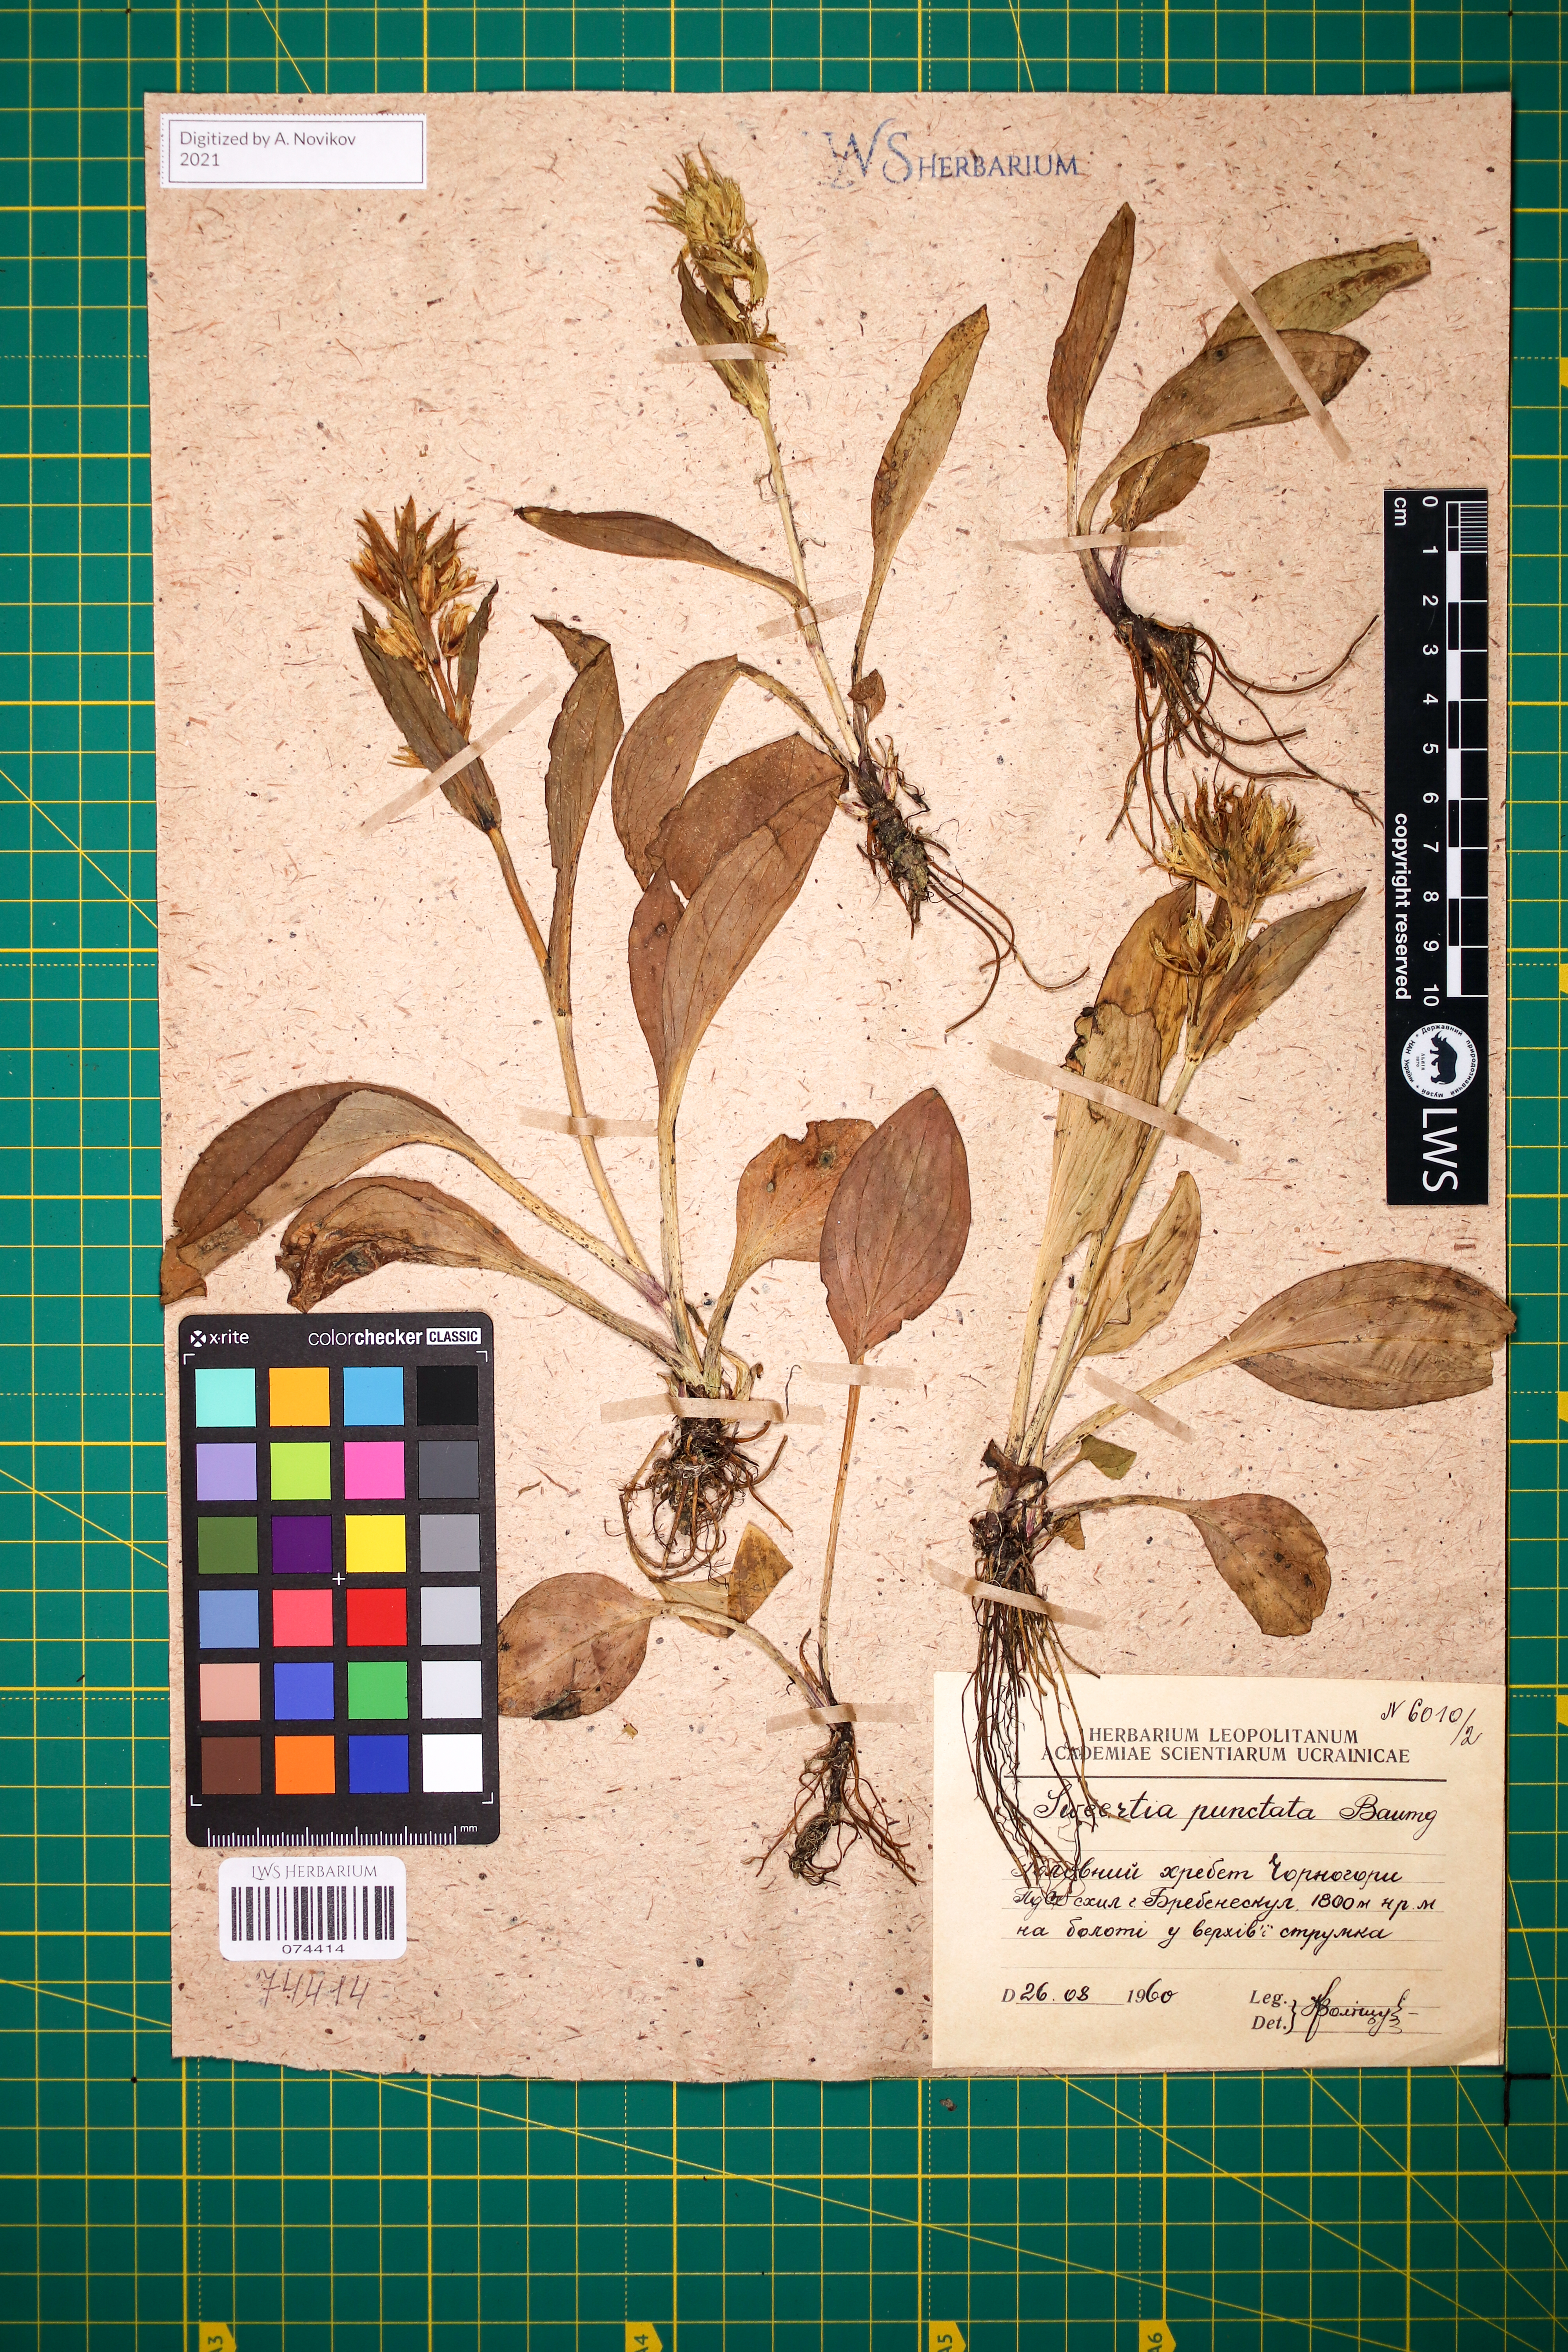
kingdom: Plantae
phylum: Tracheophyta
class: Magnoliopsida
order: Gentianales
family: Gentianaceae
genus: Swertia
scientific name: Swertia perennis
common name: Alpine bog swertia
